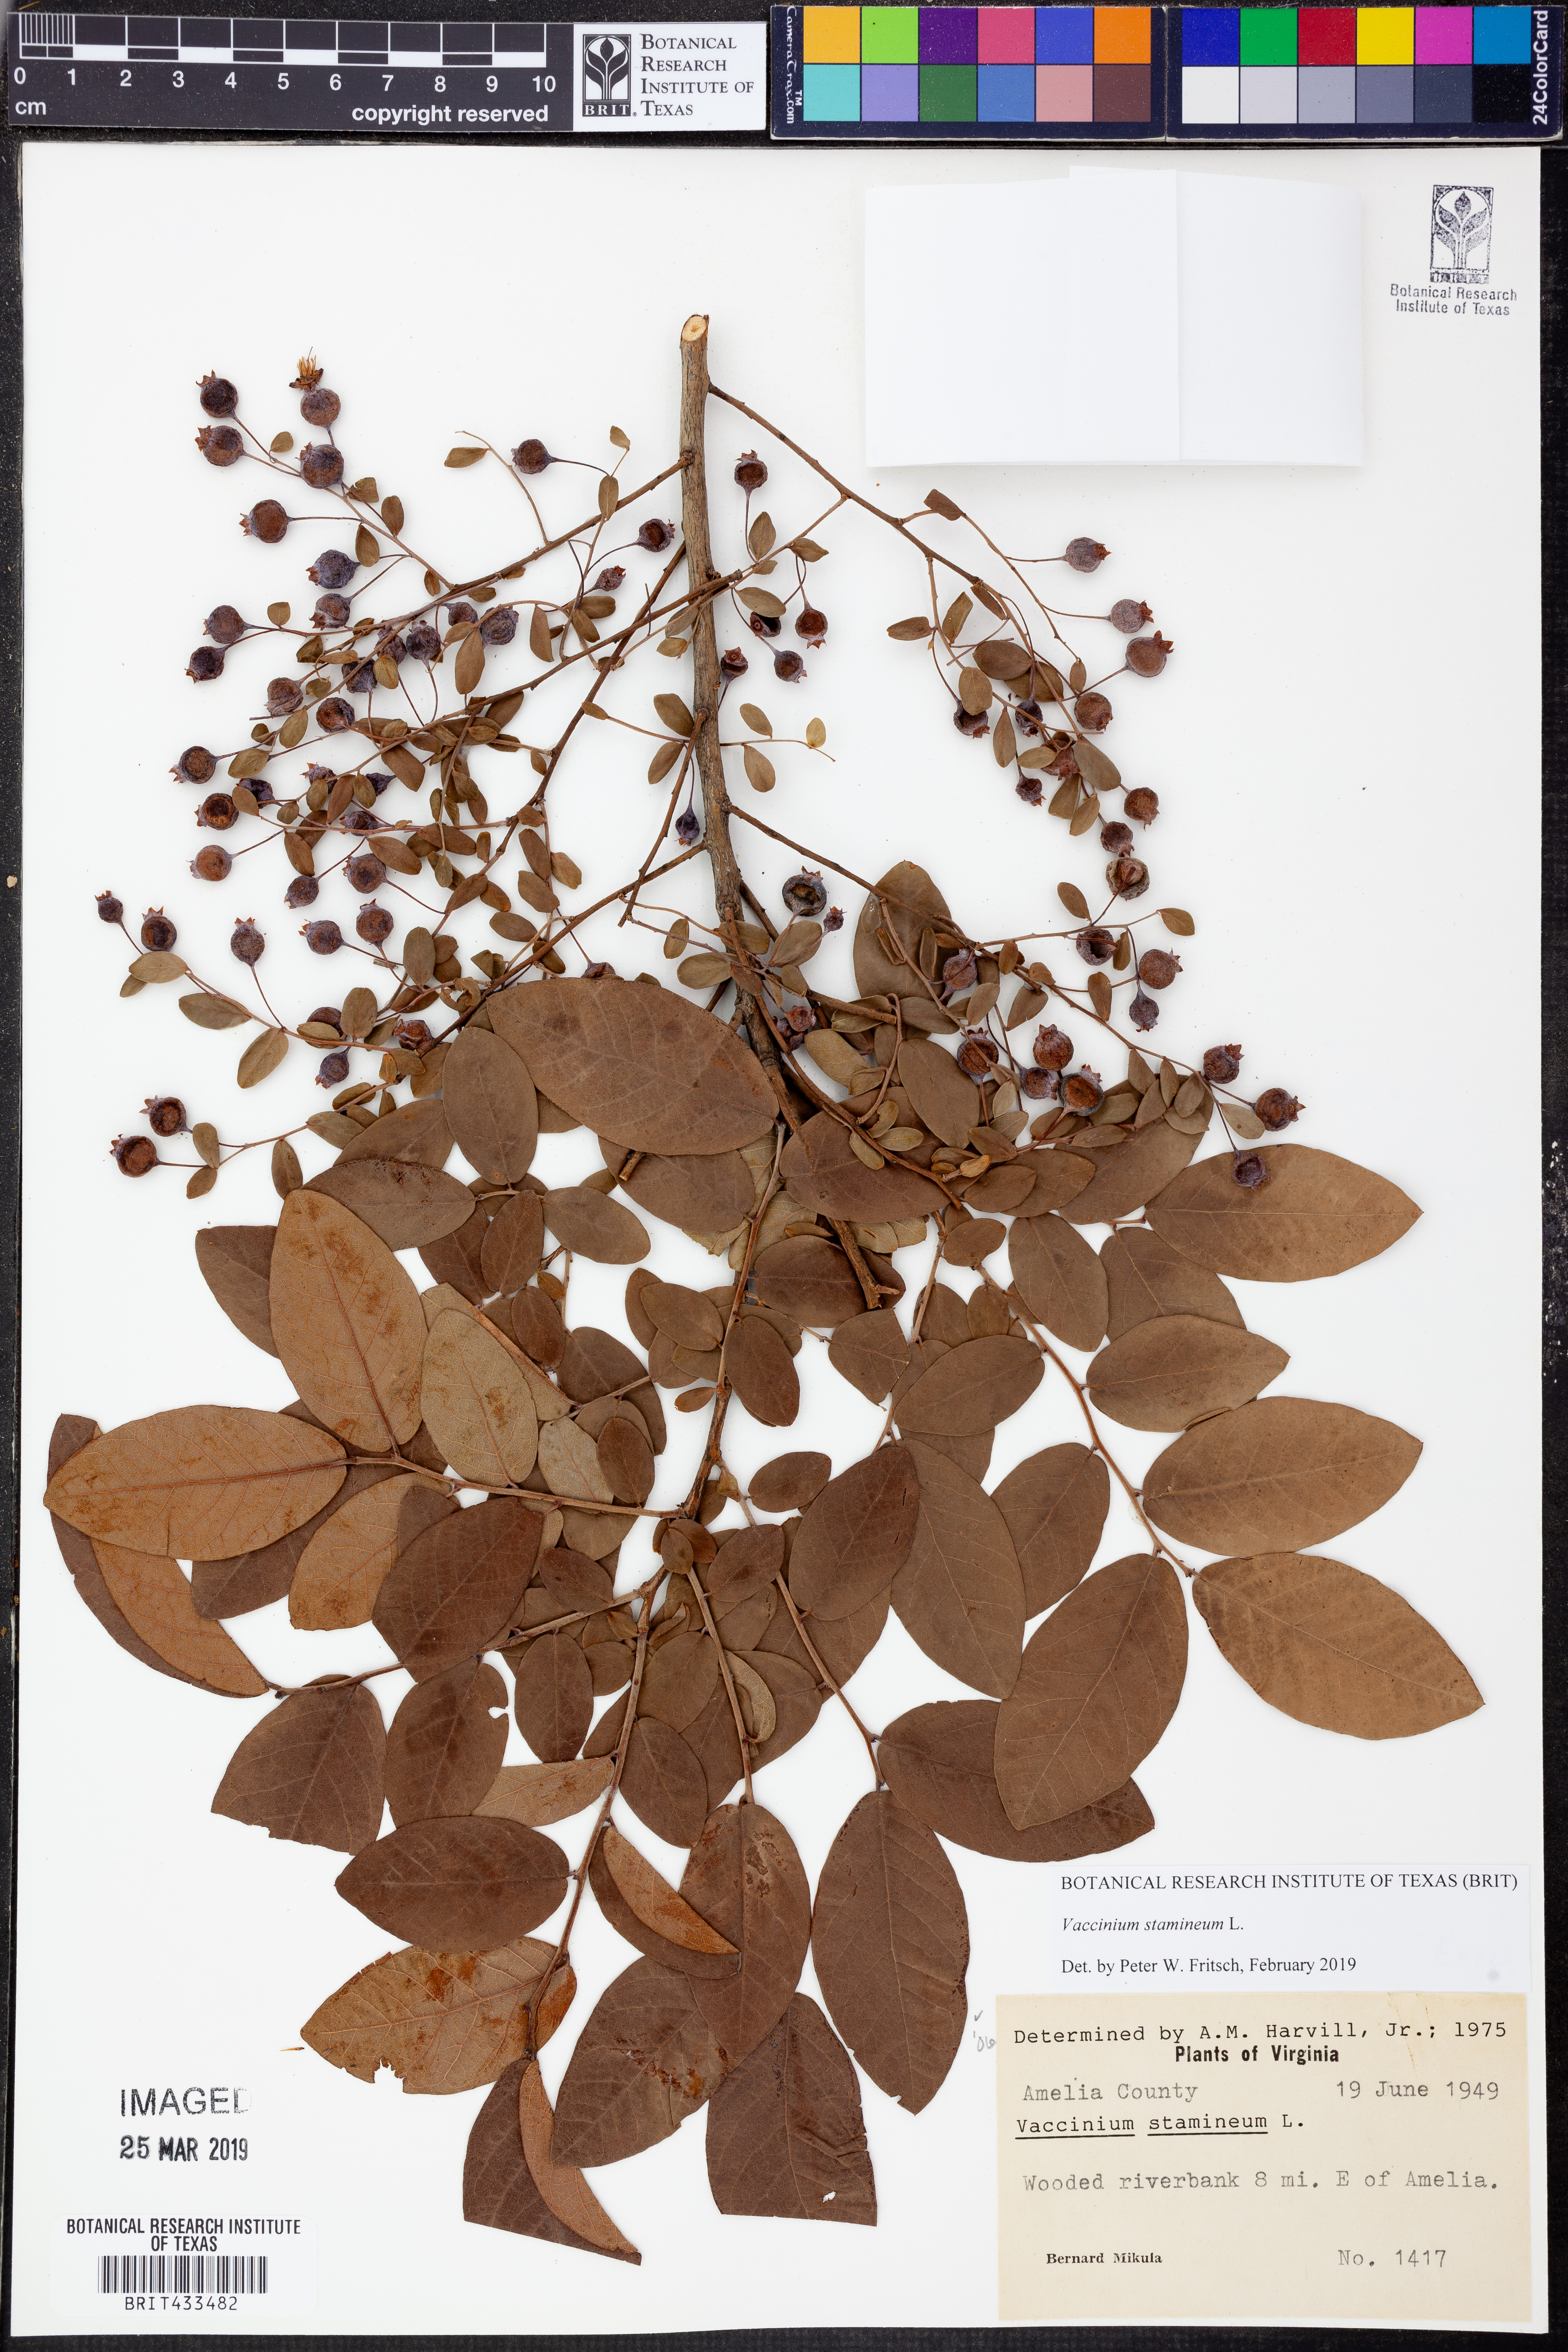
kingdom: Plantae
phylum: Tracheophyta
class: Magnoliopsida
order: Ericales
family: Ericaceae
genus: Vaccinium
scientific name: Vaccinium stamineum
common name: Deerberry
